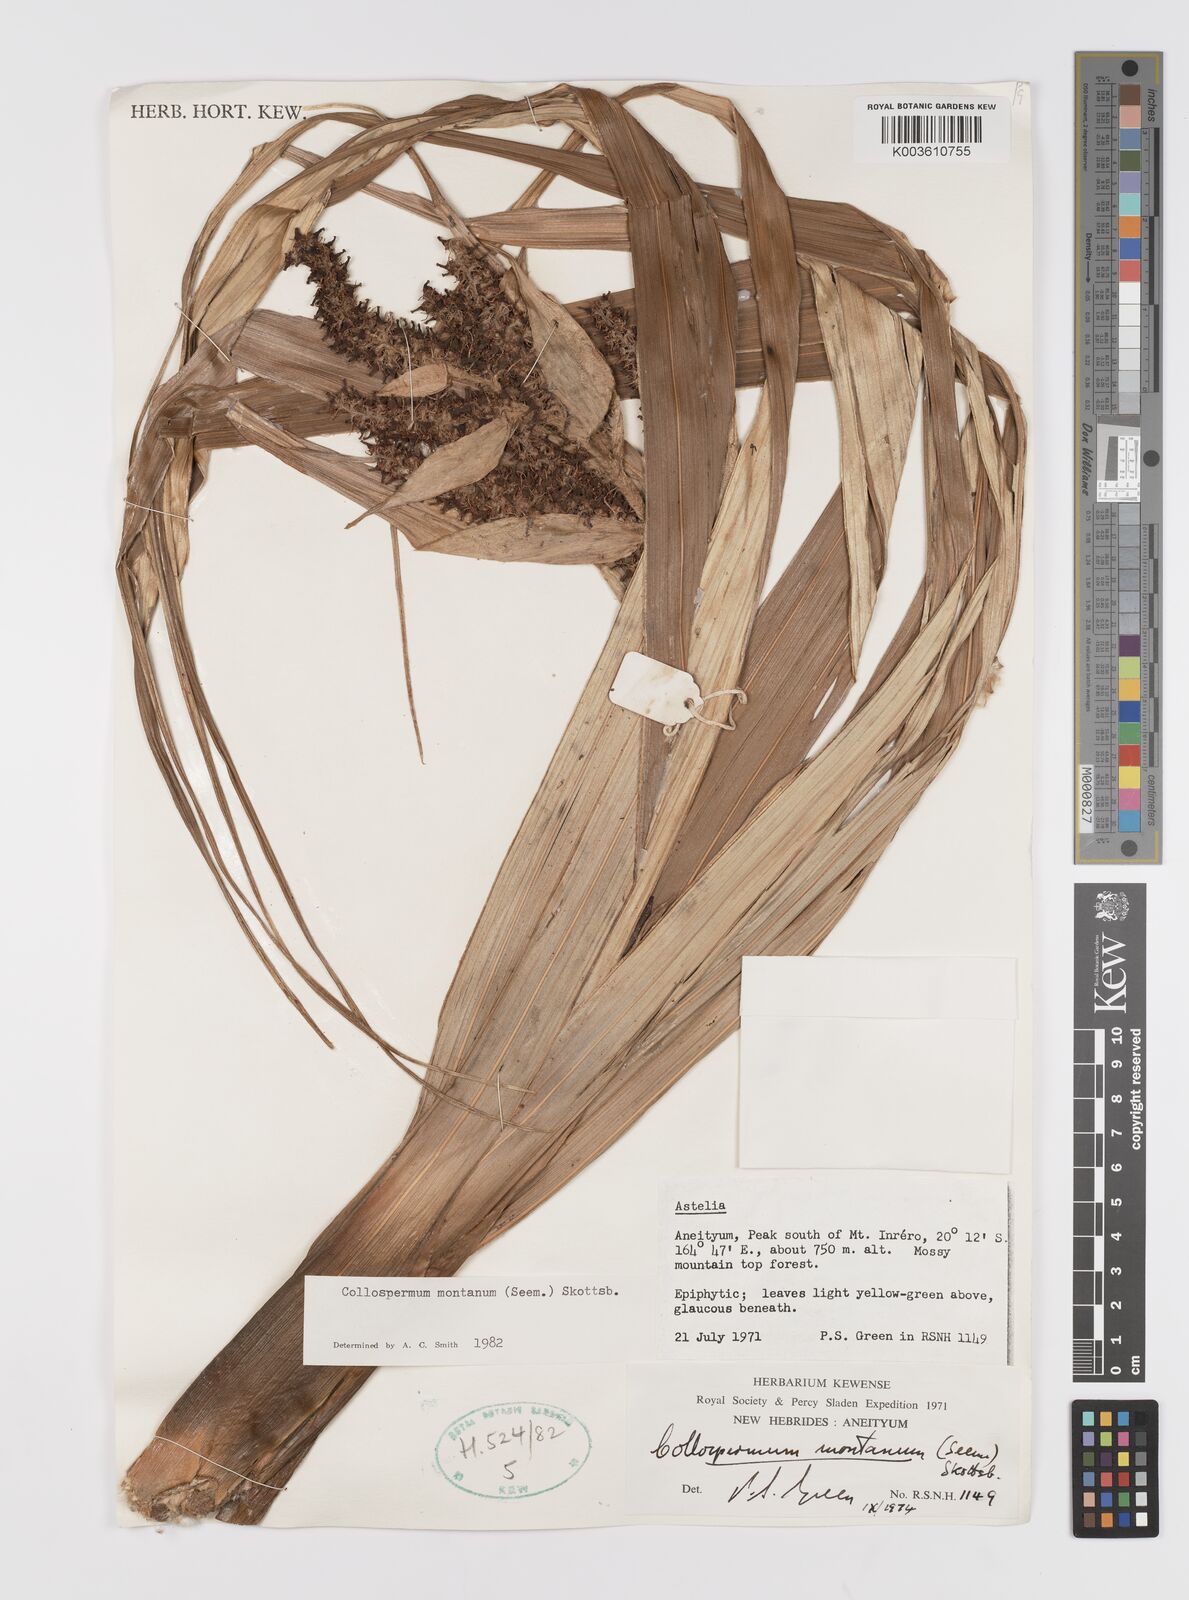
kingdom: Plantae
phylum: Tracheophyta
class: Liliopsida
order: Asparagales
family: Asteliaceae
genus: Astelia
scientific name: Astelia montana
